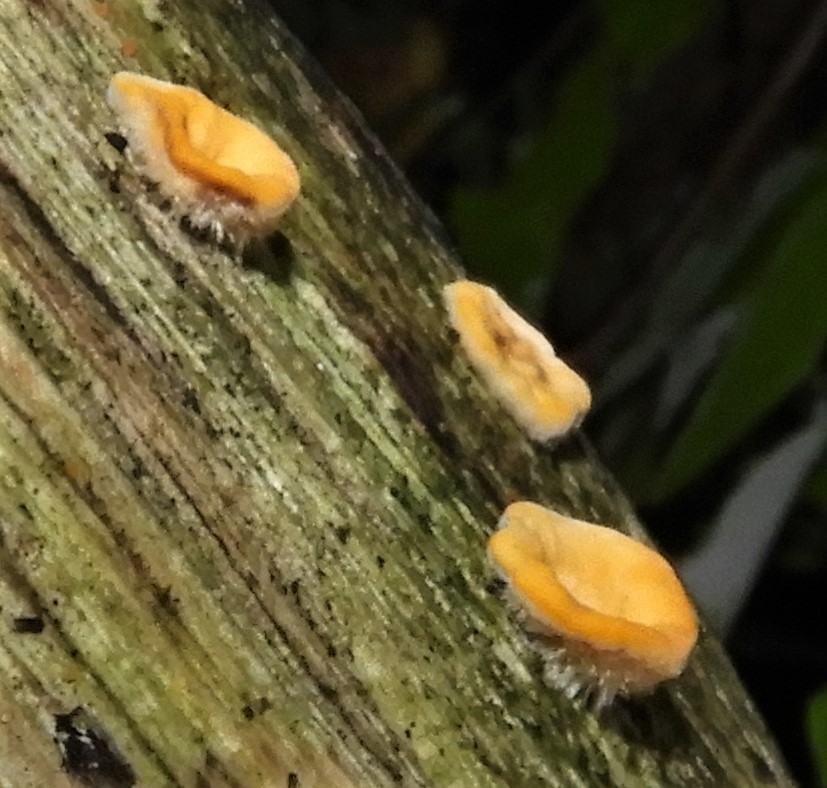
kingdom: Fungi
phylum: Basidiomycota
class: Agaricomycetes
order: Russulales
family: Stereaceae
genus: Stereum
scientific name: Stereum hirsutum
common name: håret lædersvamp
